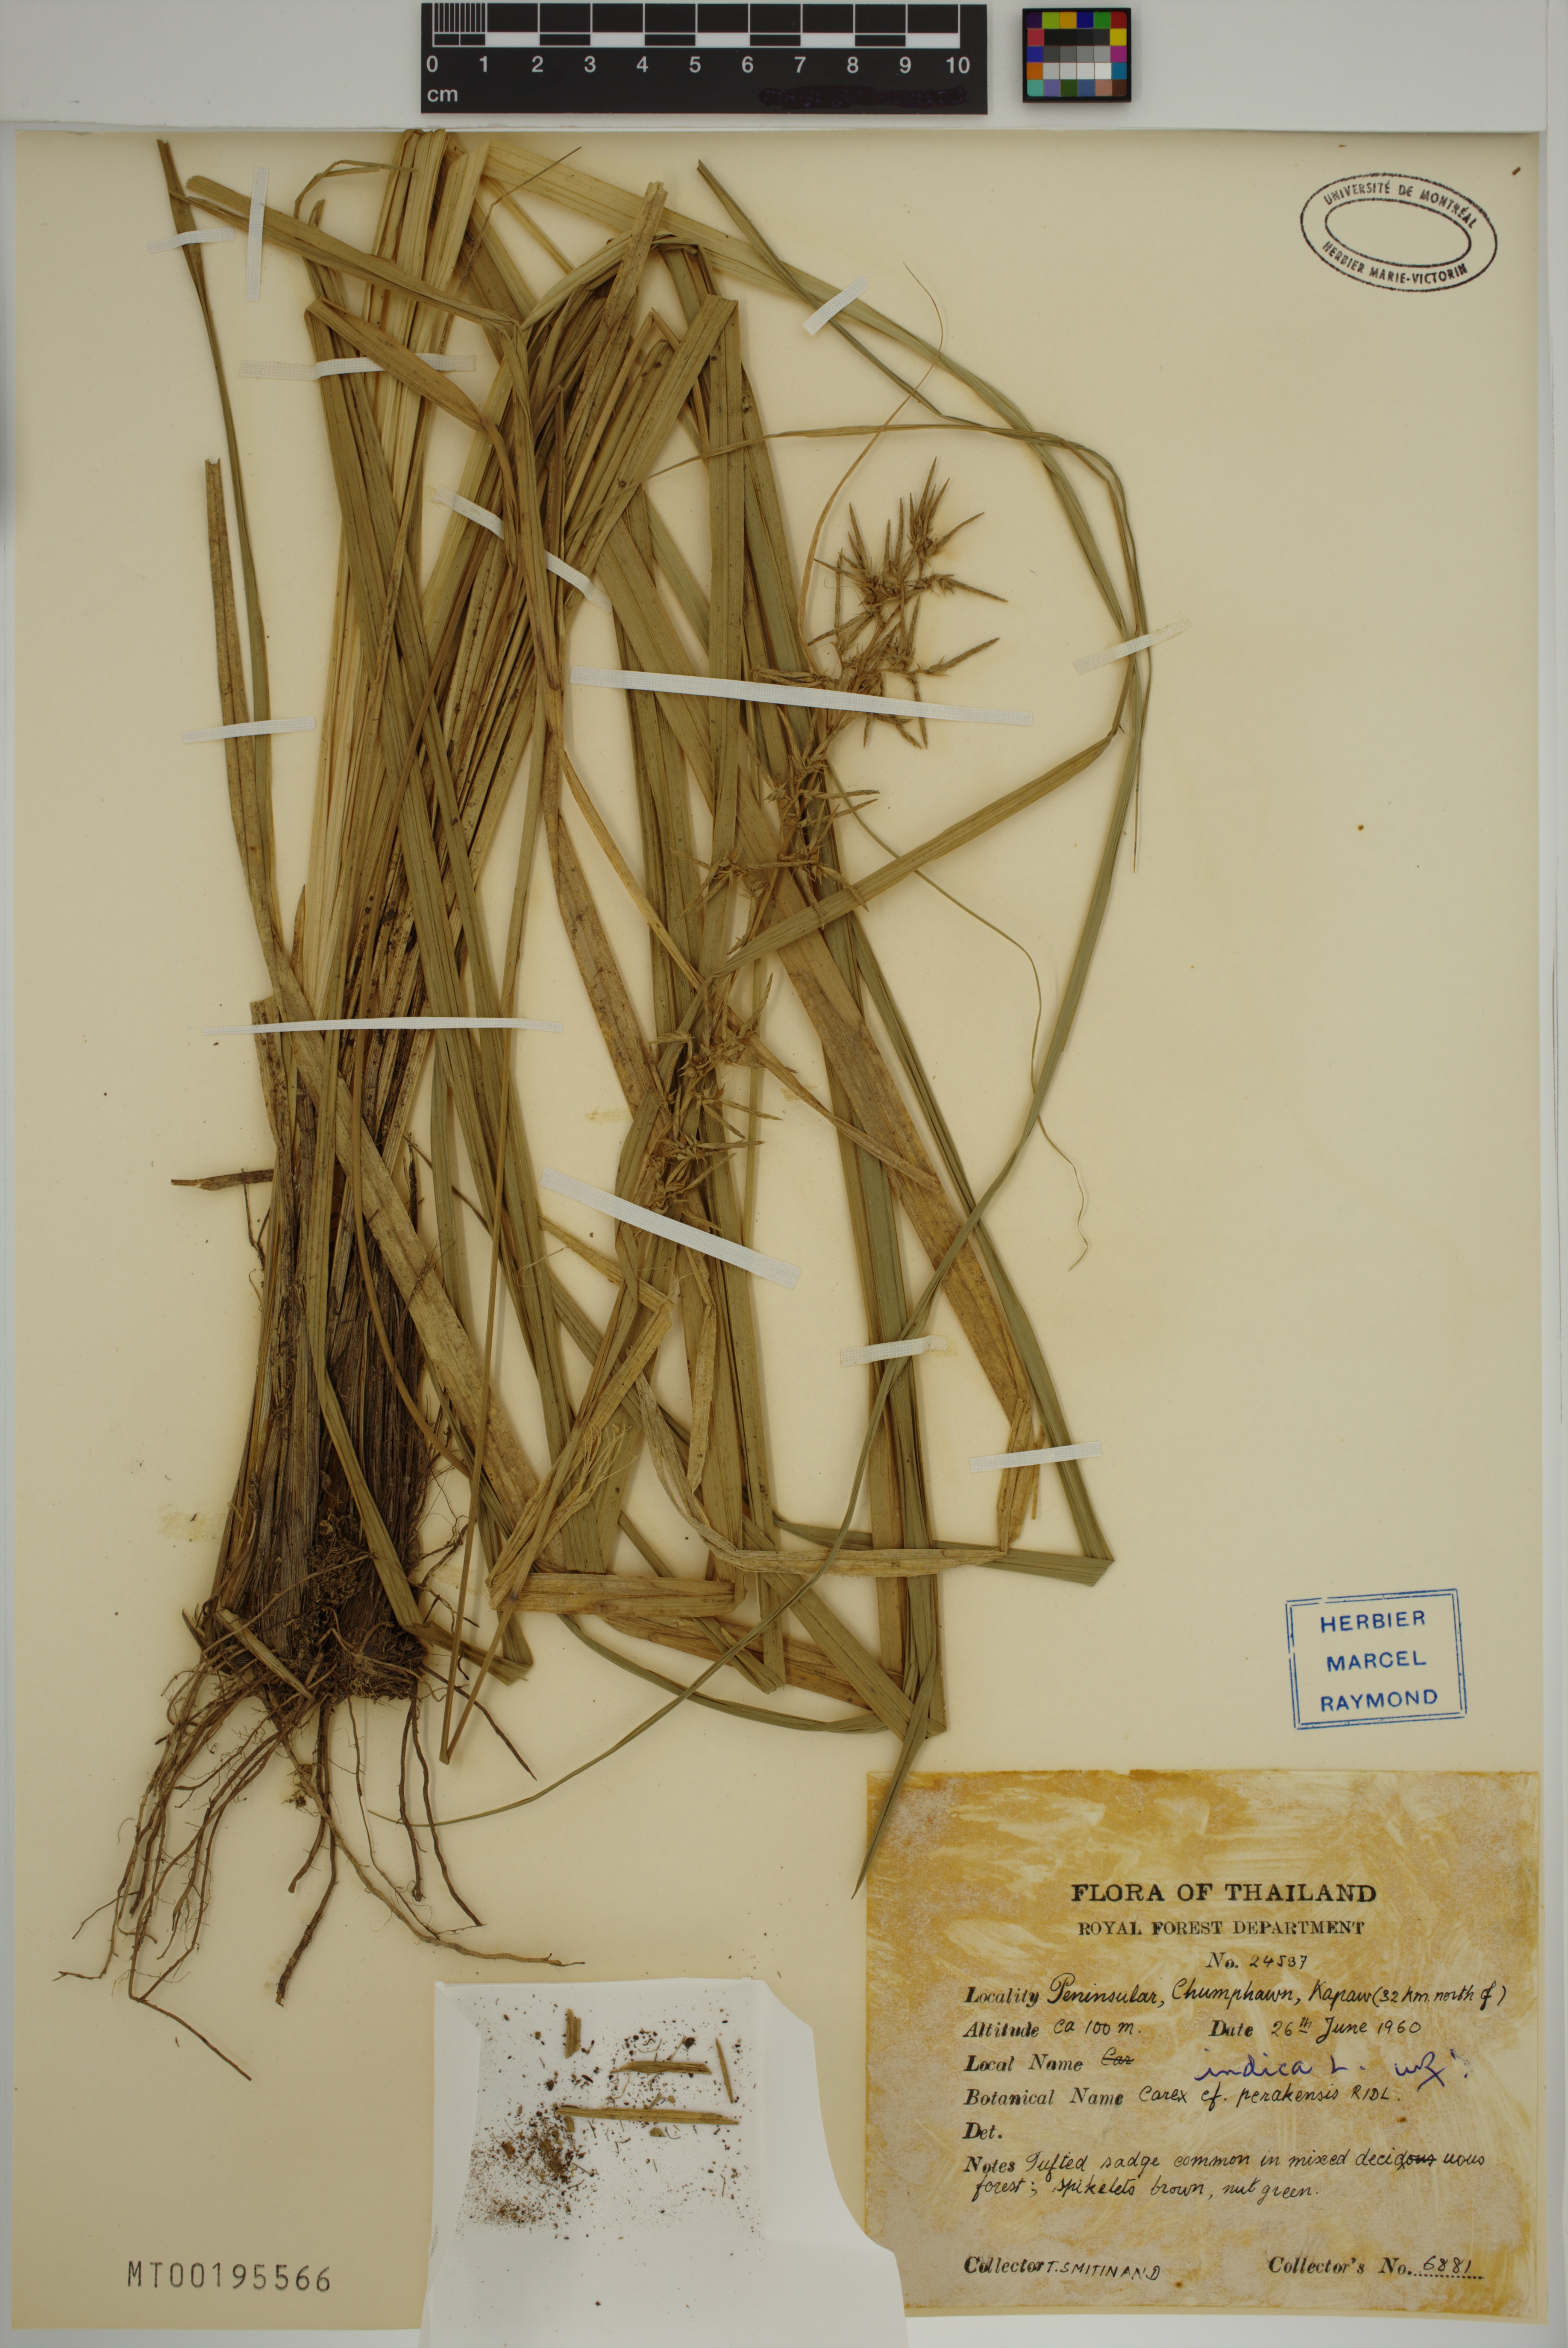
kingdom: Plantae
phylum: Tracheophyta
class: Liliopsida
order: Poales
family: Cyperaceae
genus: Carex
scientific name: Carex indica
